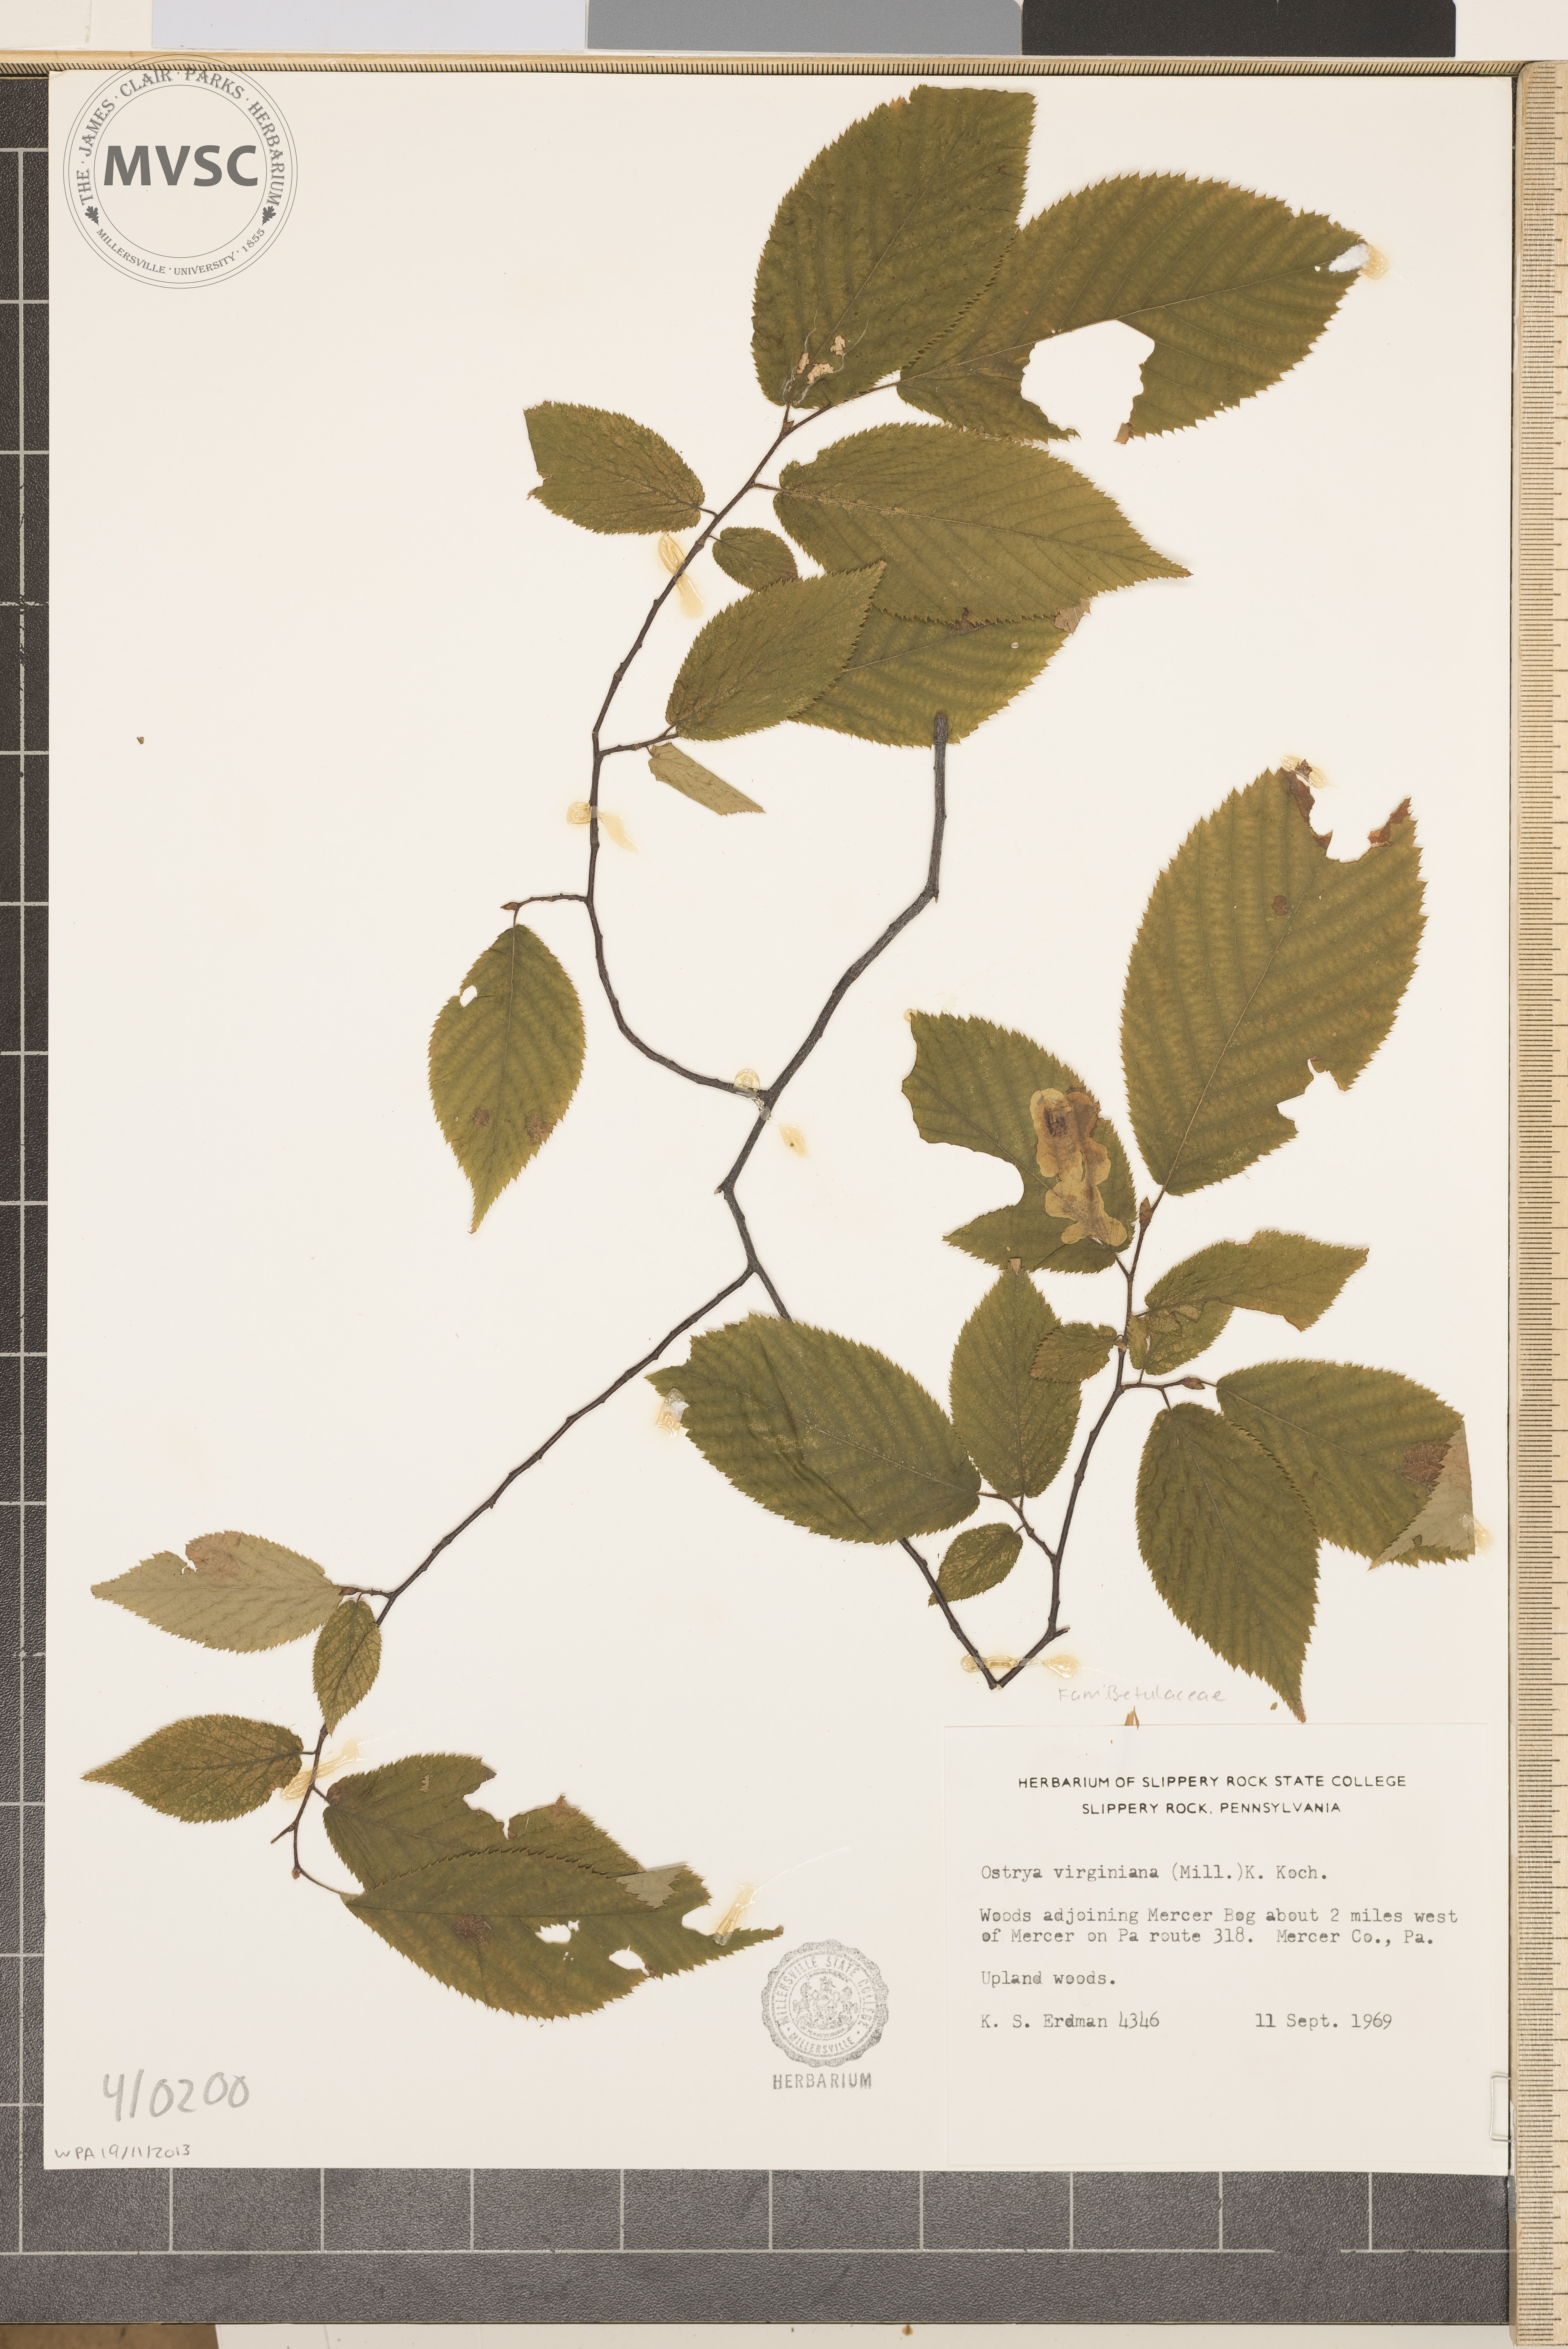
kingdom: Plantae
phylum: Tracheophyta
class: Magnoliopsida
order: Fagales
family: Betulaceae
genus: Ostrya
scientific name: Ostrya virginiana
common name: Ironwood
